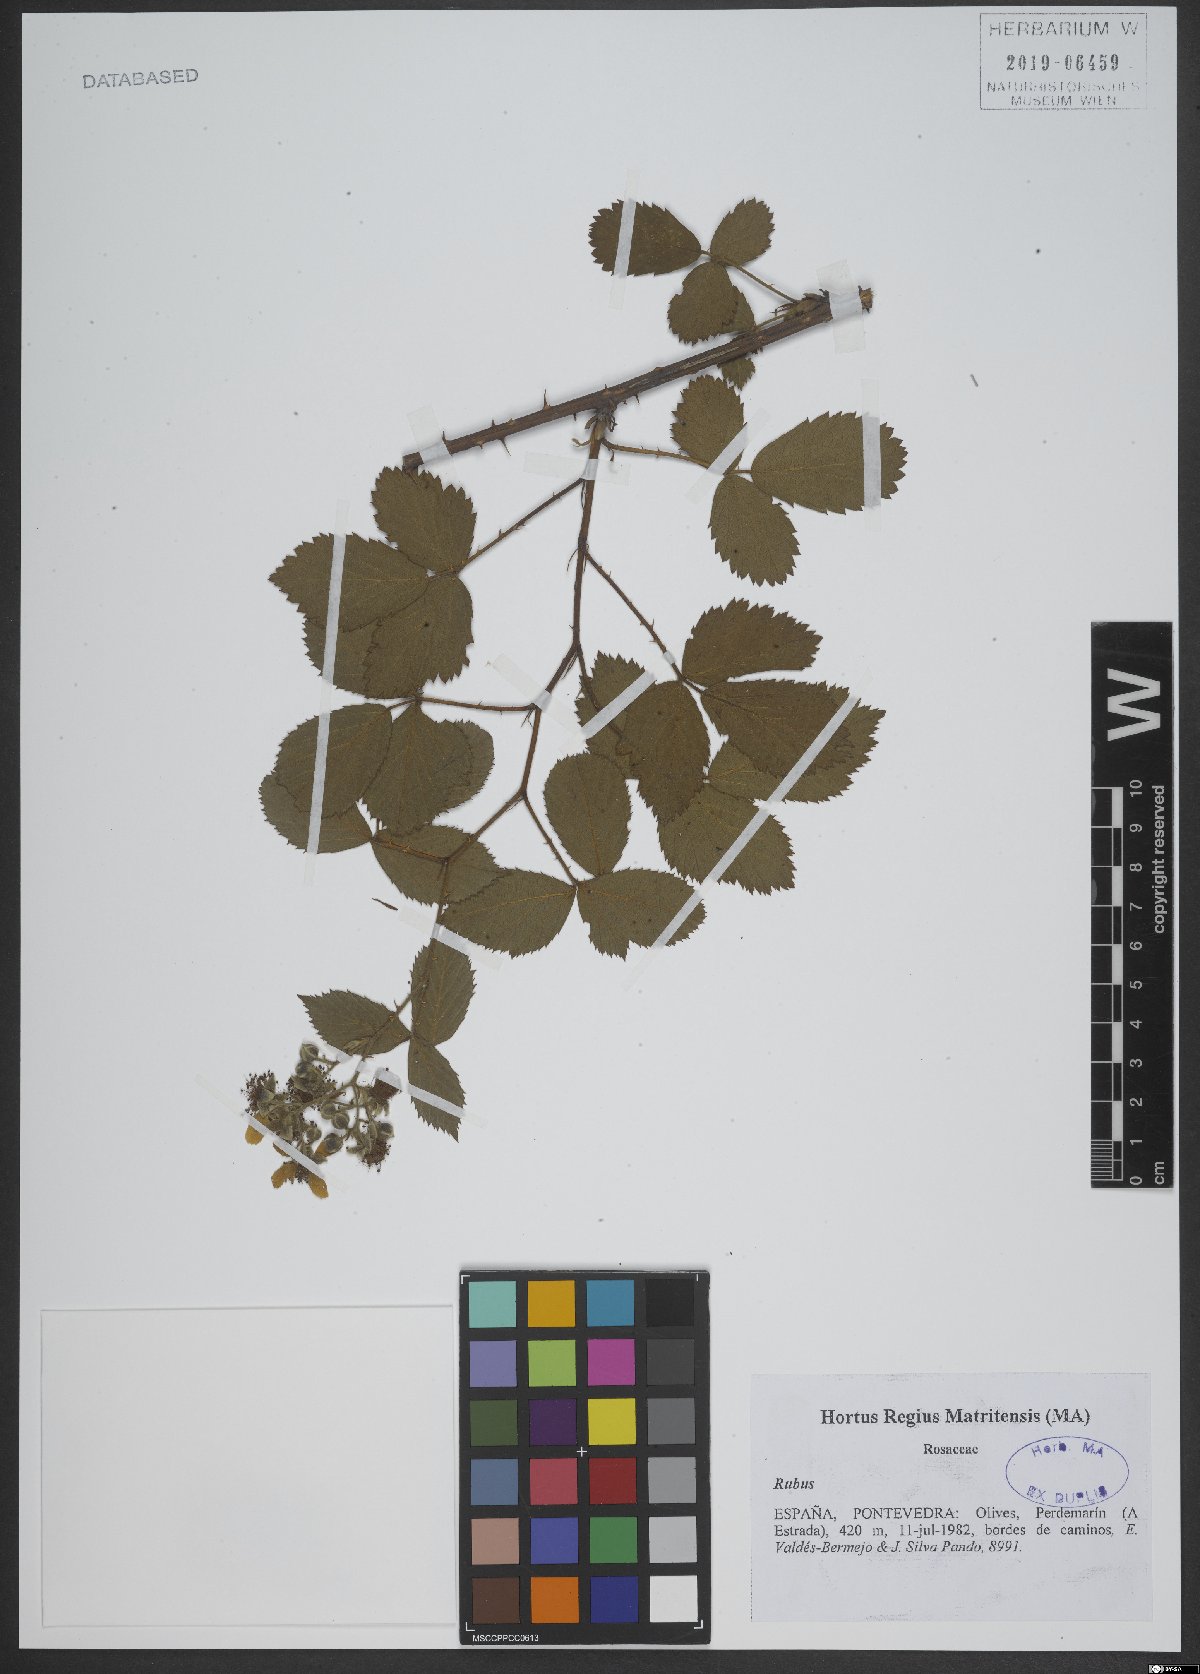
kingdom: Plantae
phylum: Tracheophyta
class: Magnoliopsida
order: Rosales
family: Rosaceae
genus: Rubus
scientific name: Rubus
